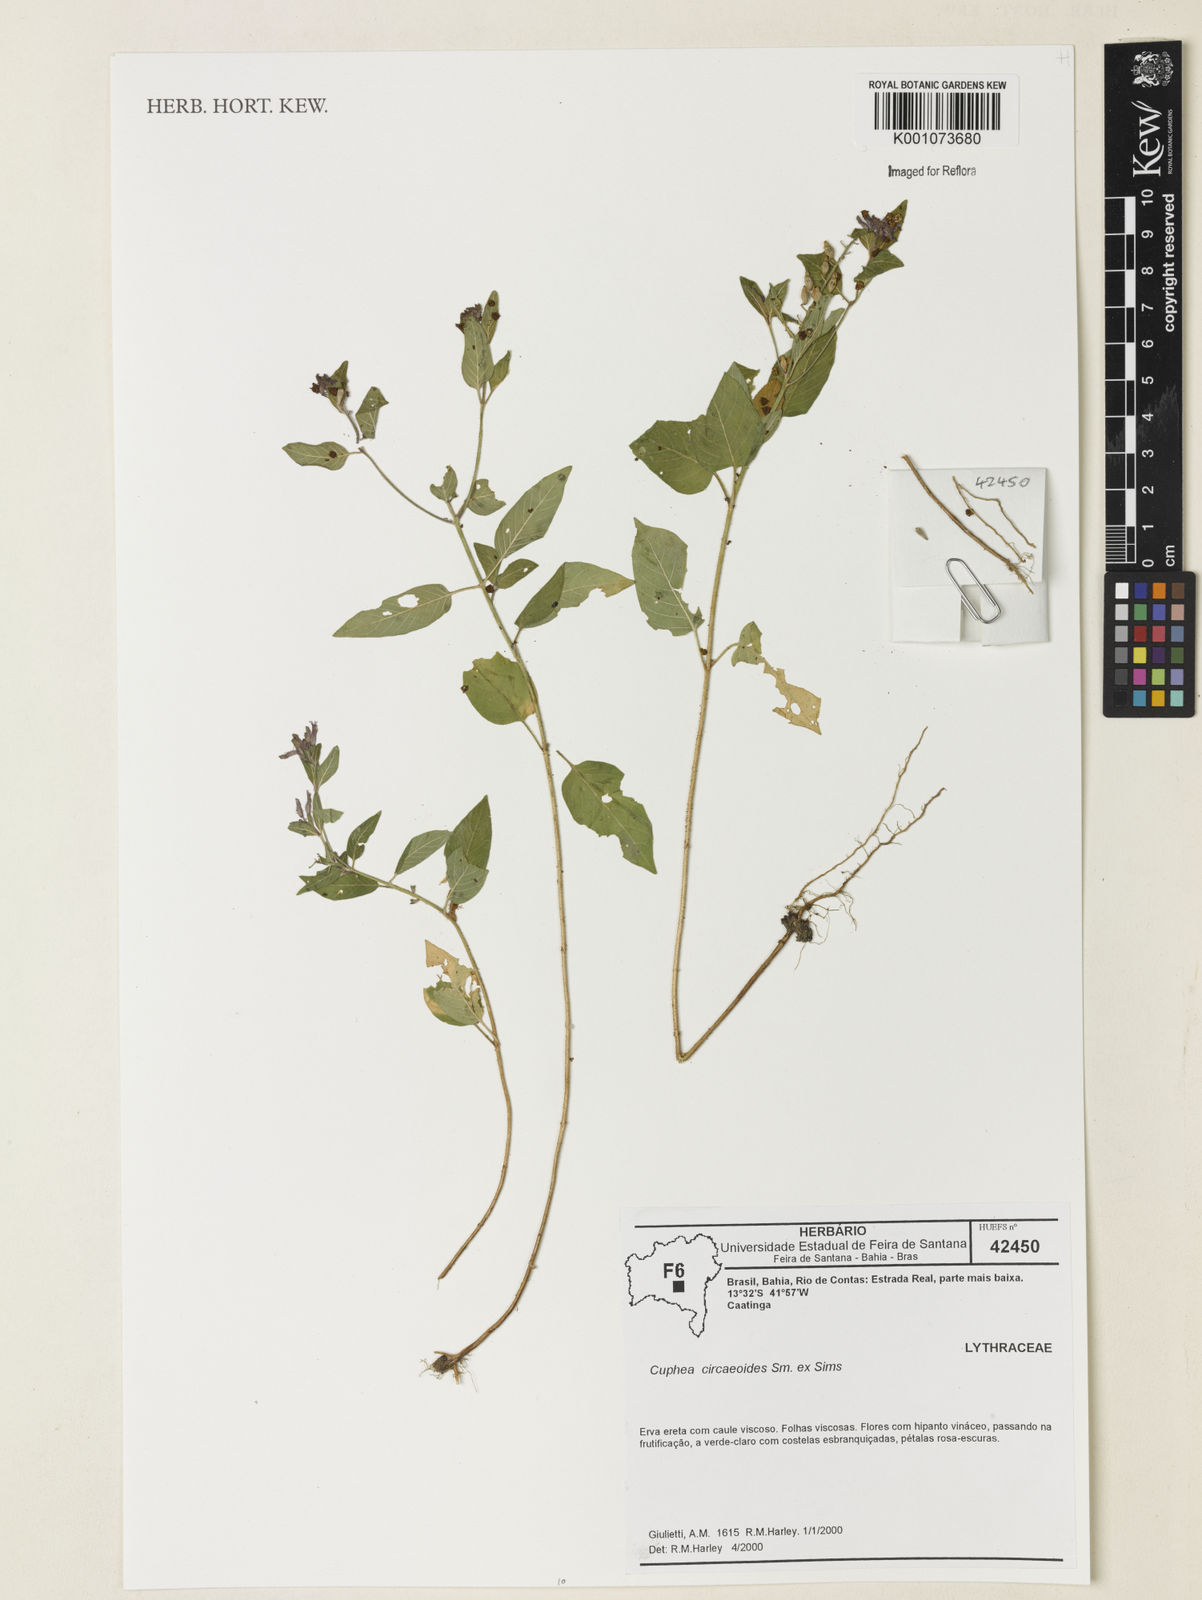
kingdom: Plantae
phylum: Tracheophyta
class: Magnoliopsida
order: Myrtales
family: Lythraceae
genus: Cuphea
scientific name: Cuphea circaeoides
